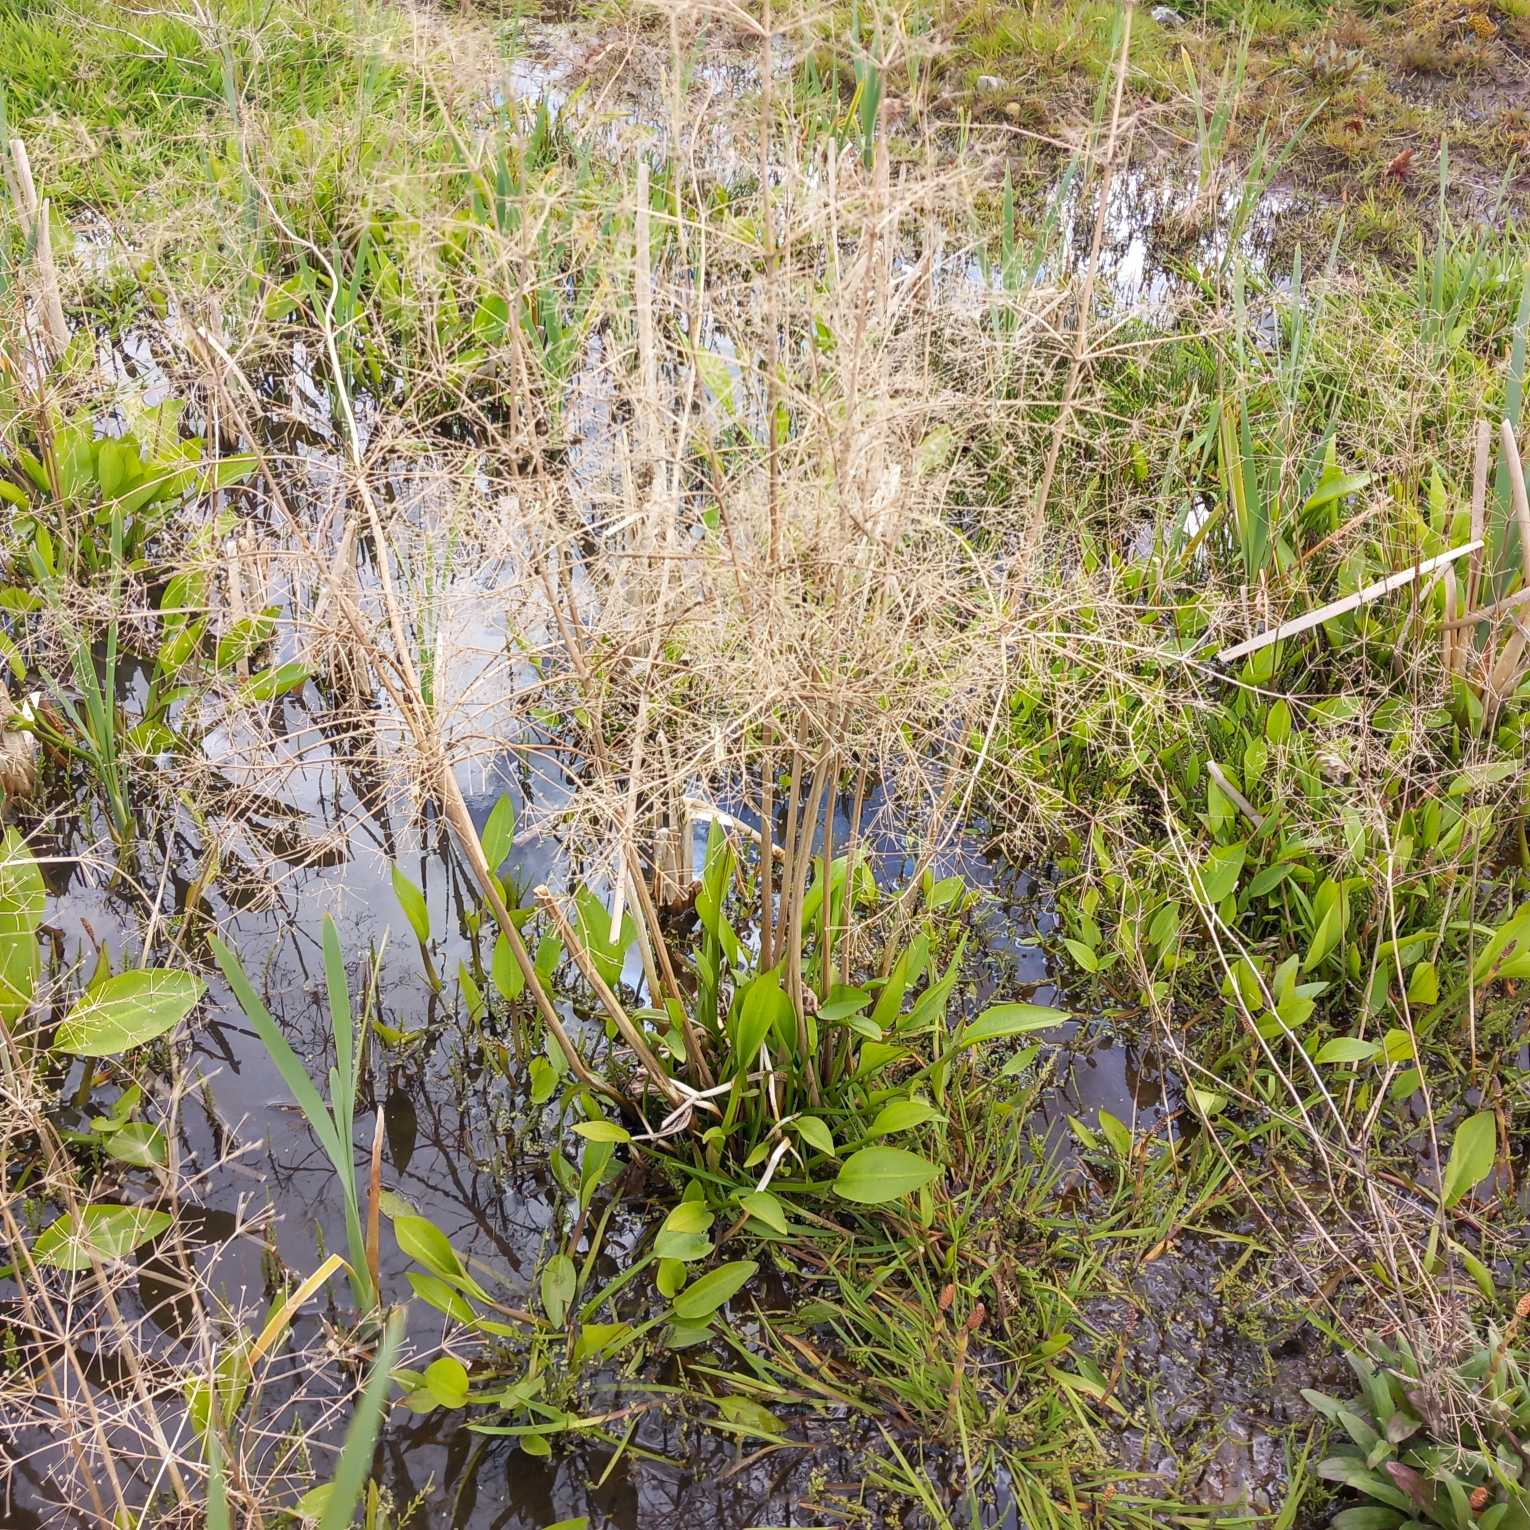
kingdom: Plantae
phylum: Tracheophyta
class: Liliopsida
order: Alismatales
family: Alismataceae
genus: Alisma
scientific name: Alisma plantago-aquatica
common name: Vejbred-skeblad
